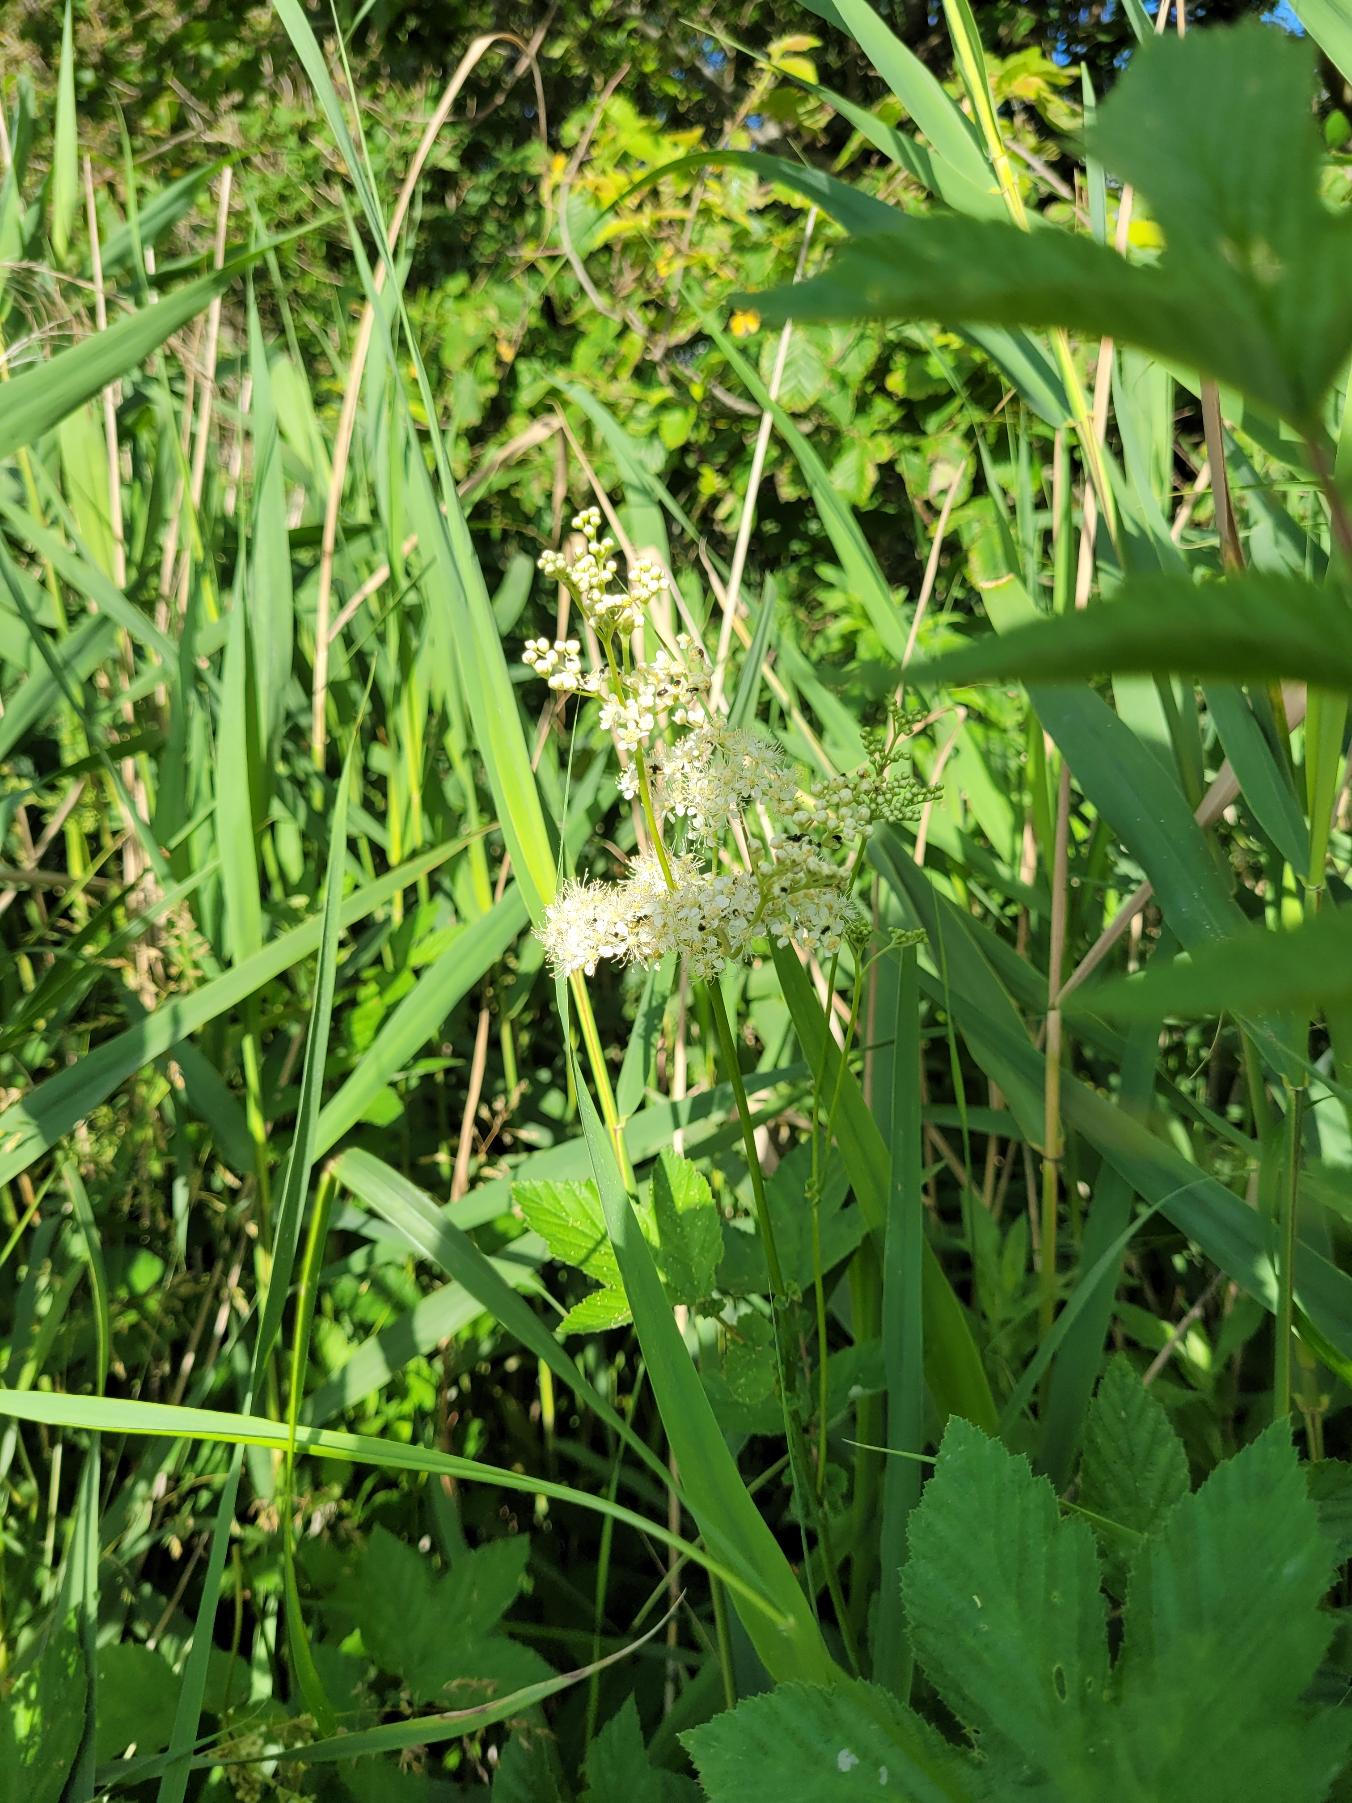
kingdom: Plantae
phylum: Tracheophyta
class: Magnoliopsida
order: Rosales
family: Rosaceae
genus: Filipendula
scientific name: Filipendula ulmaria
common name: Almindelig mjødurt
